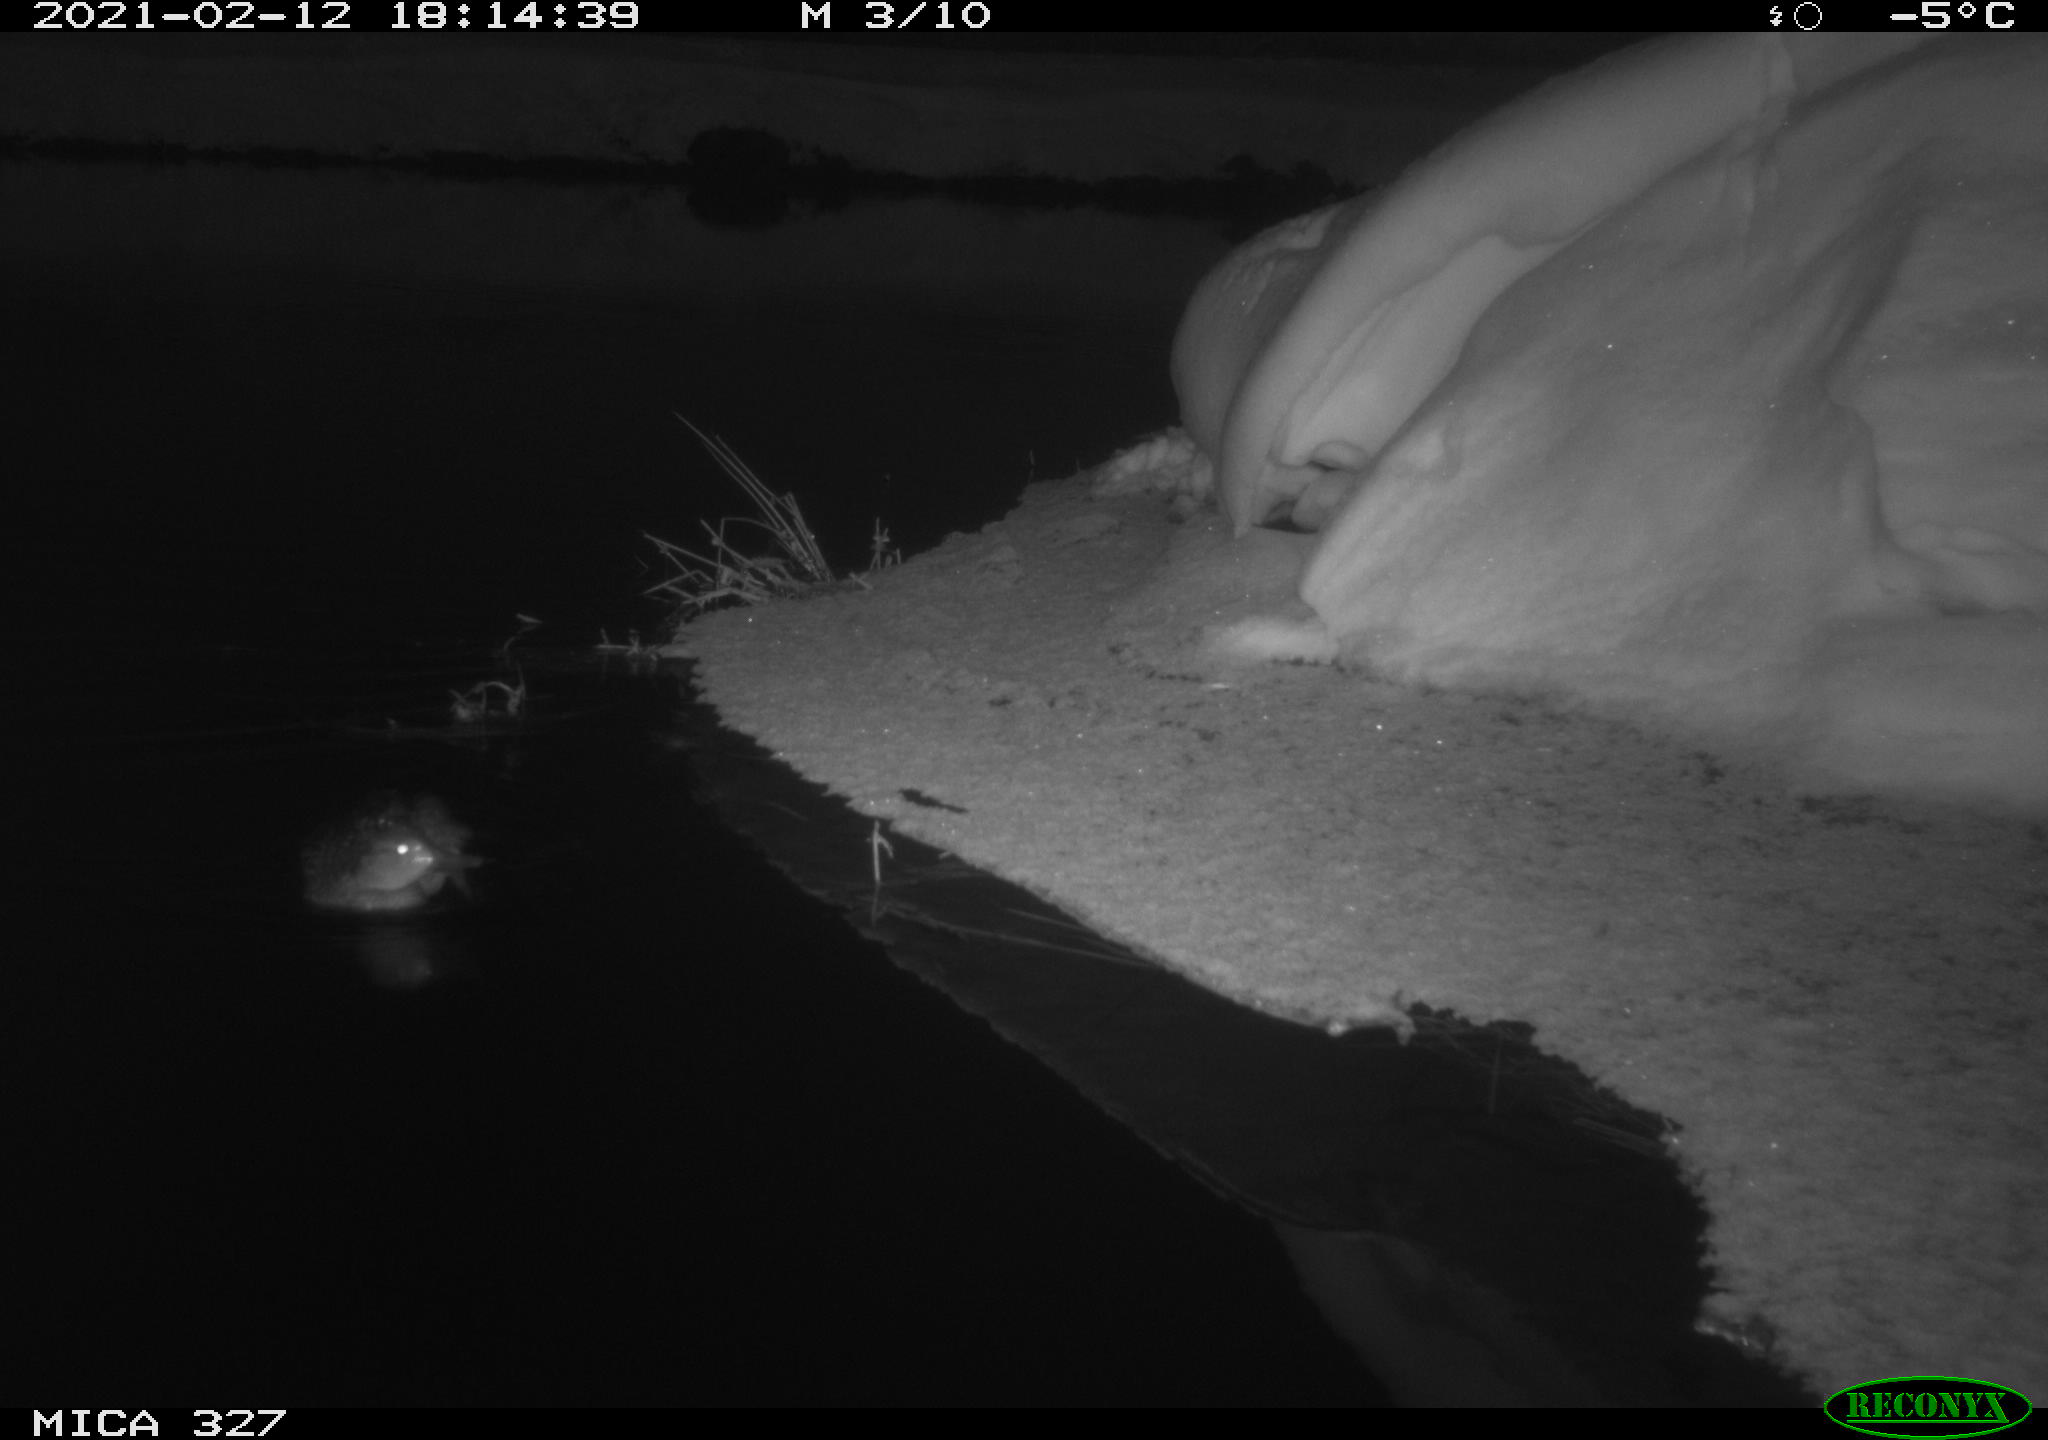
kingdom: Animalia
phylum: Chordata
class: Aves
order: Anseriformes
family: Anatidae
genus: Anas
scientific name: Anas
